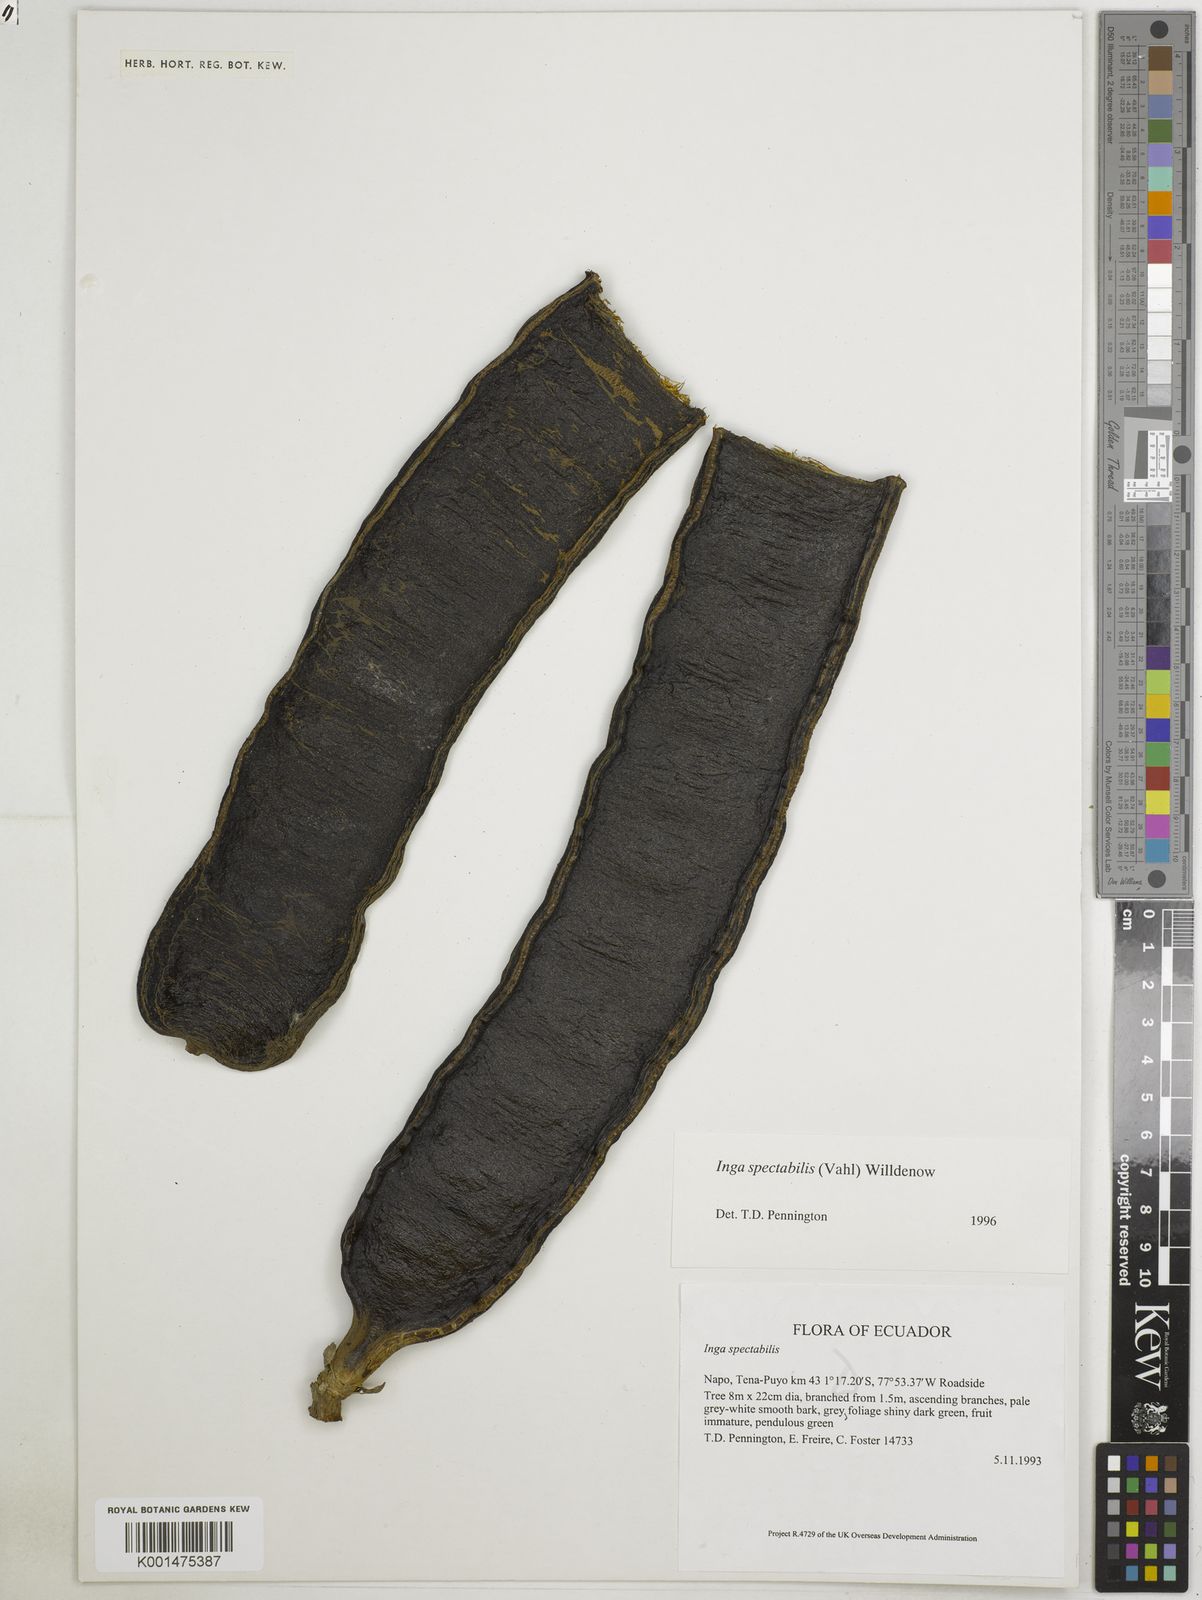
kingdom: Plantae
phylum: Tracheophyta
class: Magnoliopsida
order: Fabales
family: Fabaceae
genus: Inga
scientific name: Inga spectabilis
